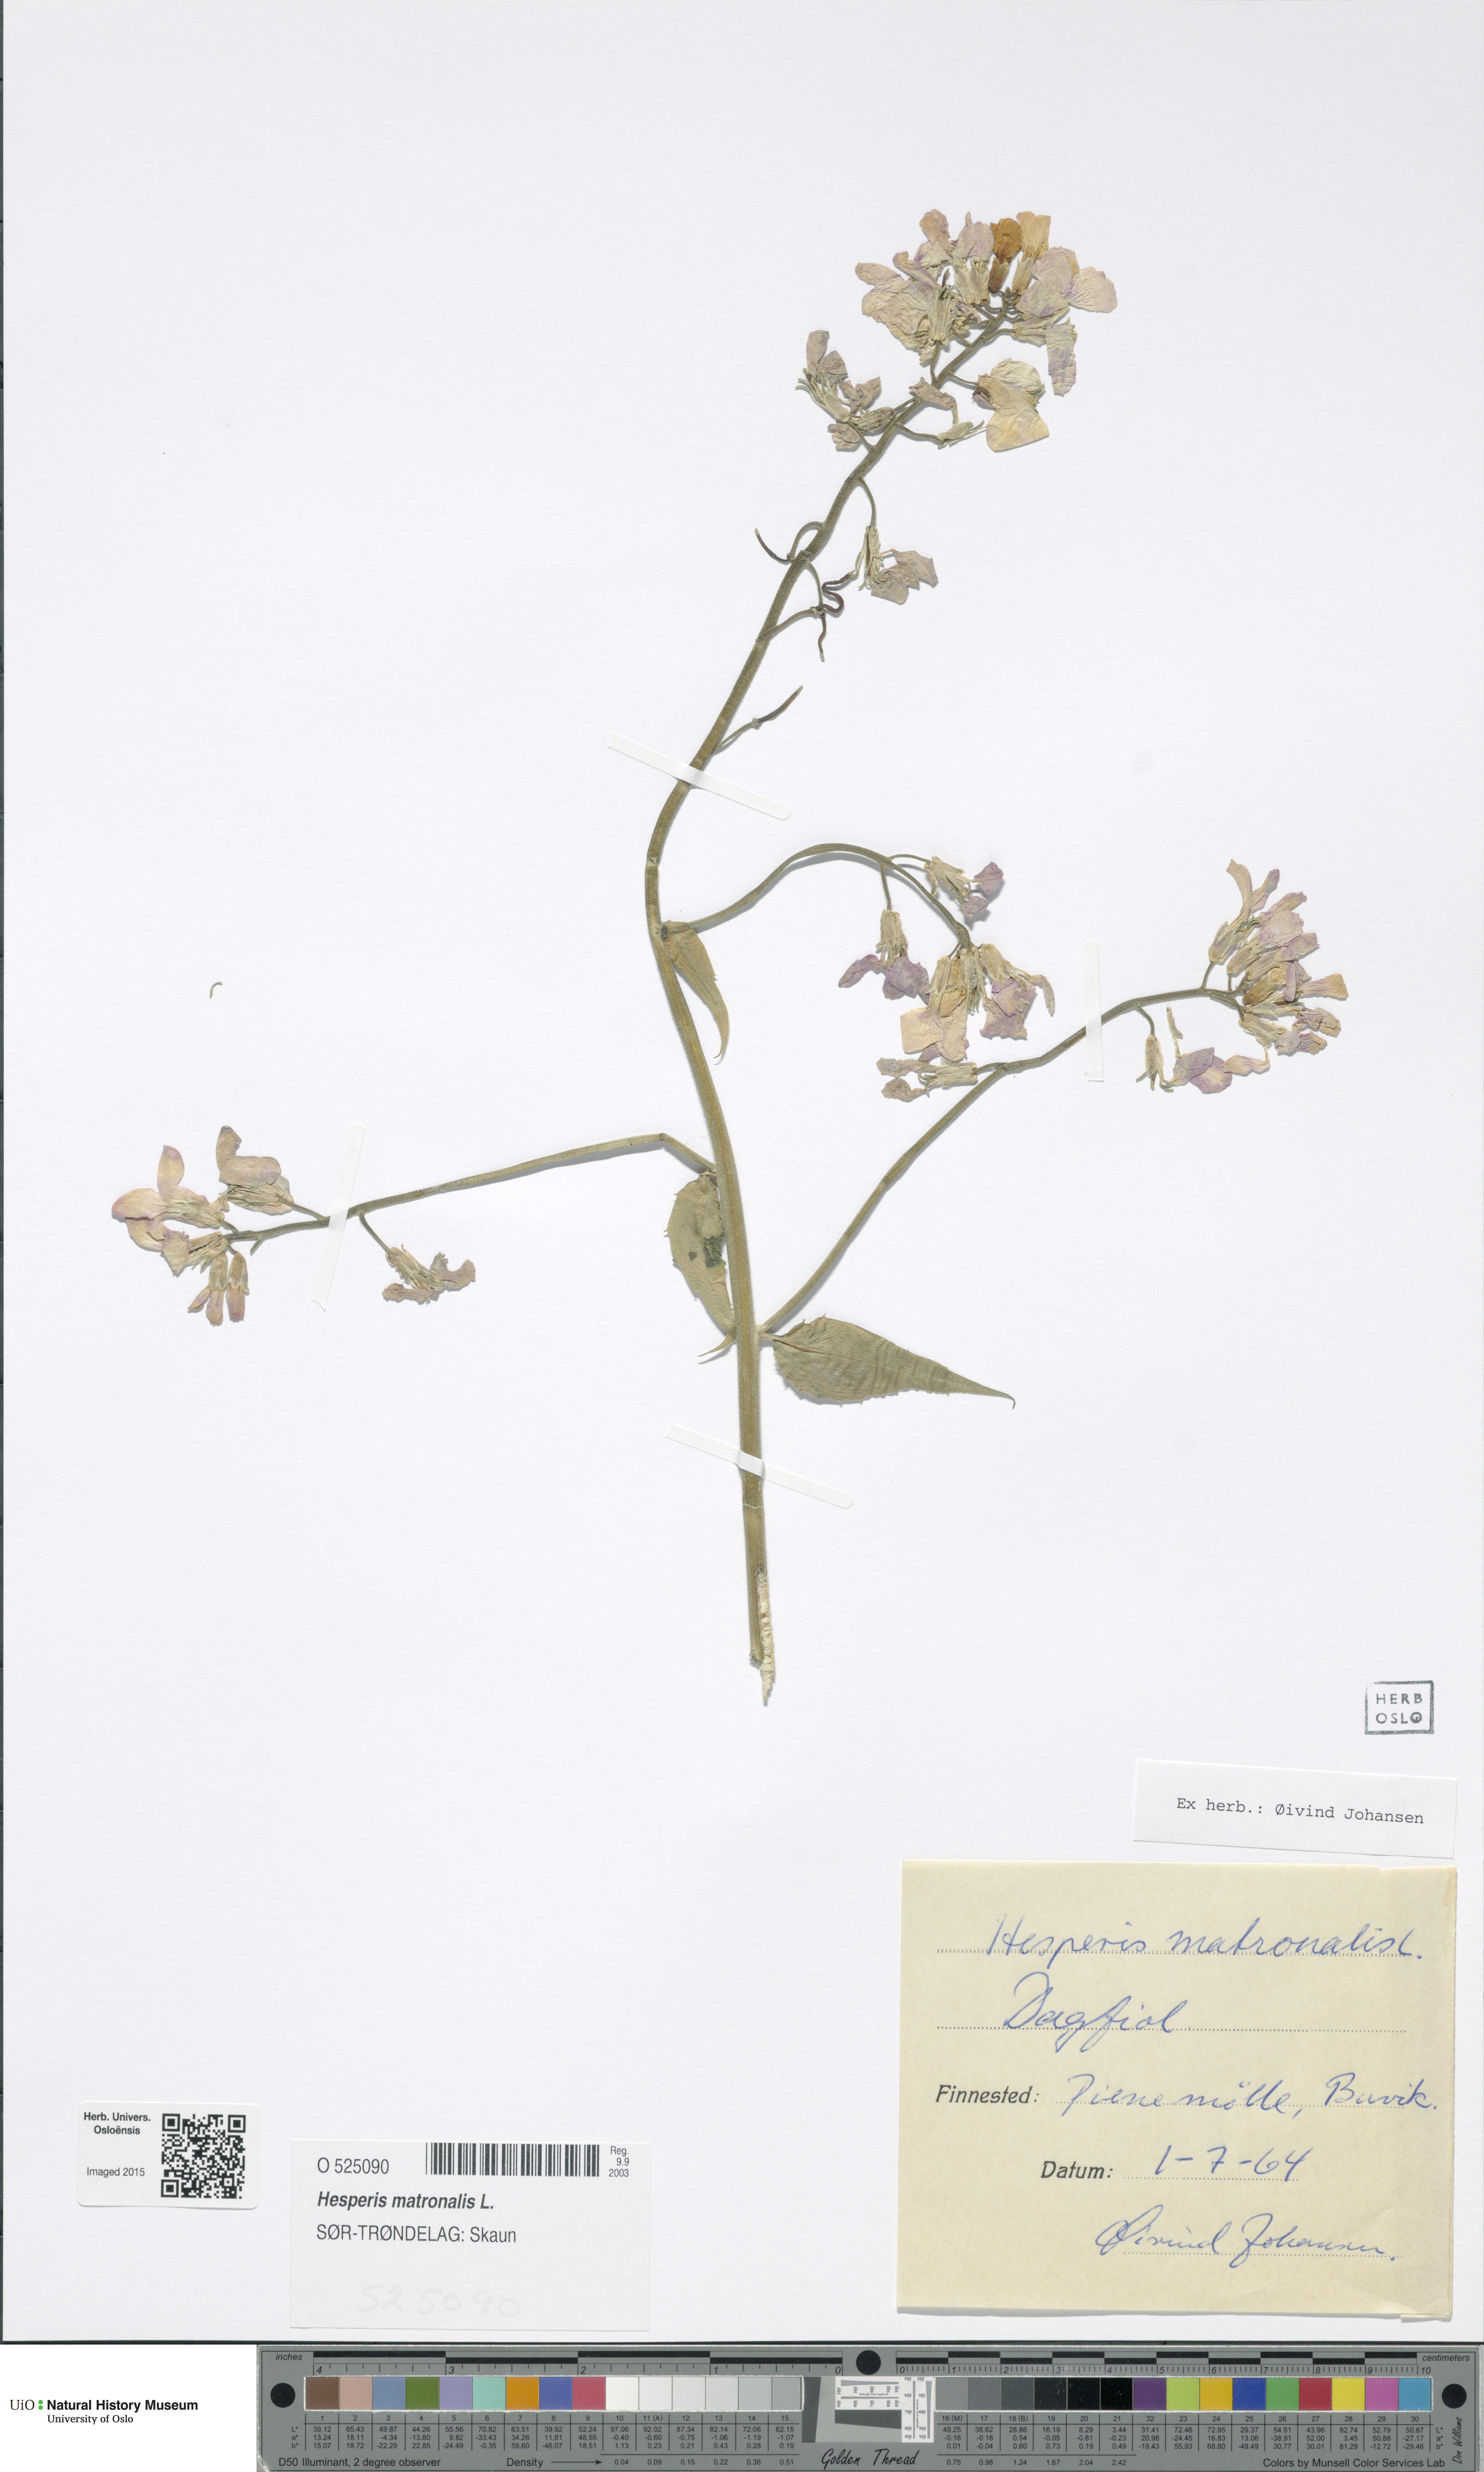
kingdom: Plantae
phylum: Tracheophyta
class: Magnoliopsida
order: Brassicales
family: Brassicaceae
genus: Hesperis
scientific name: Hesperis matronalis
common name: Dame's-violet
